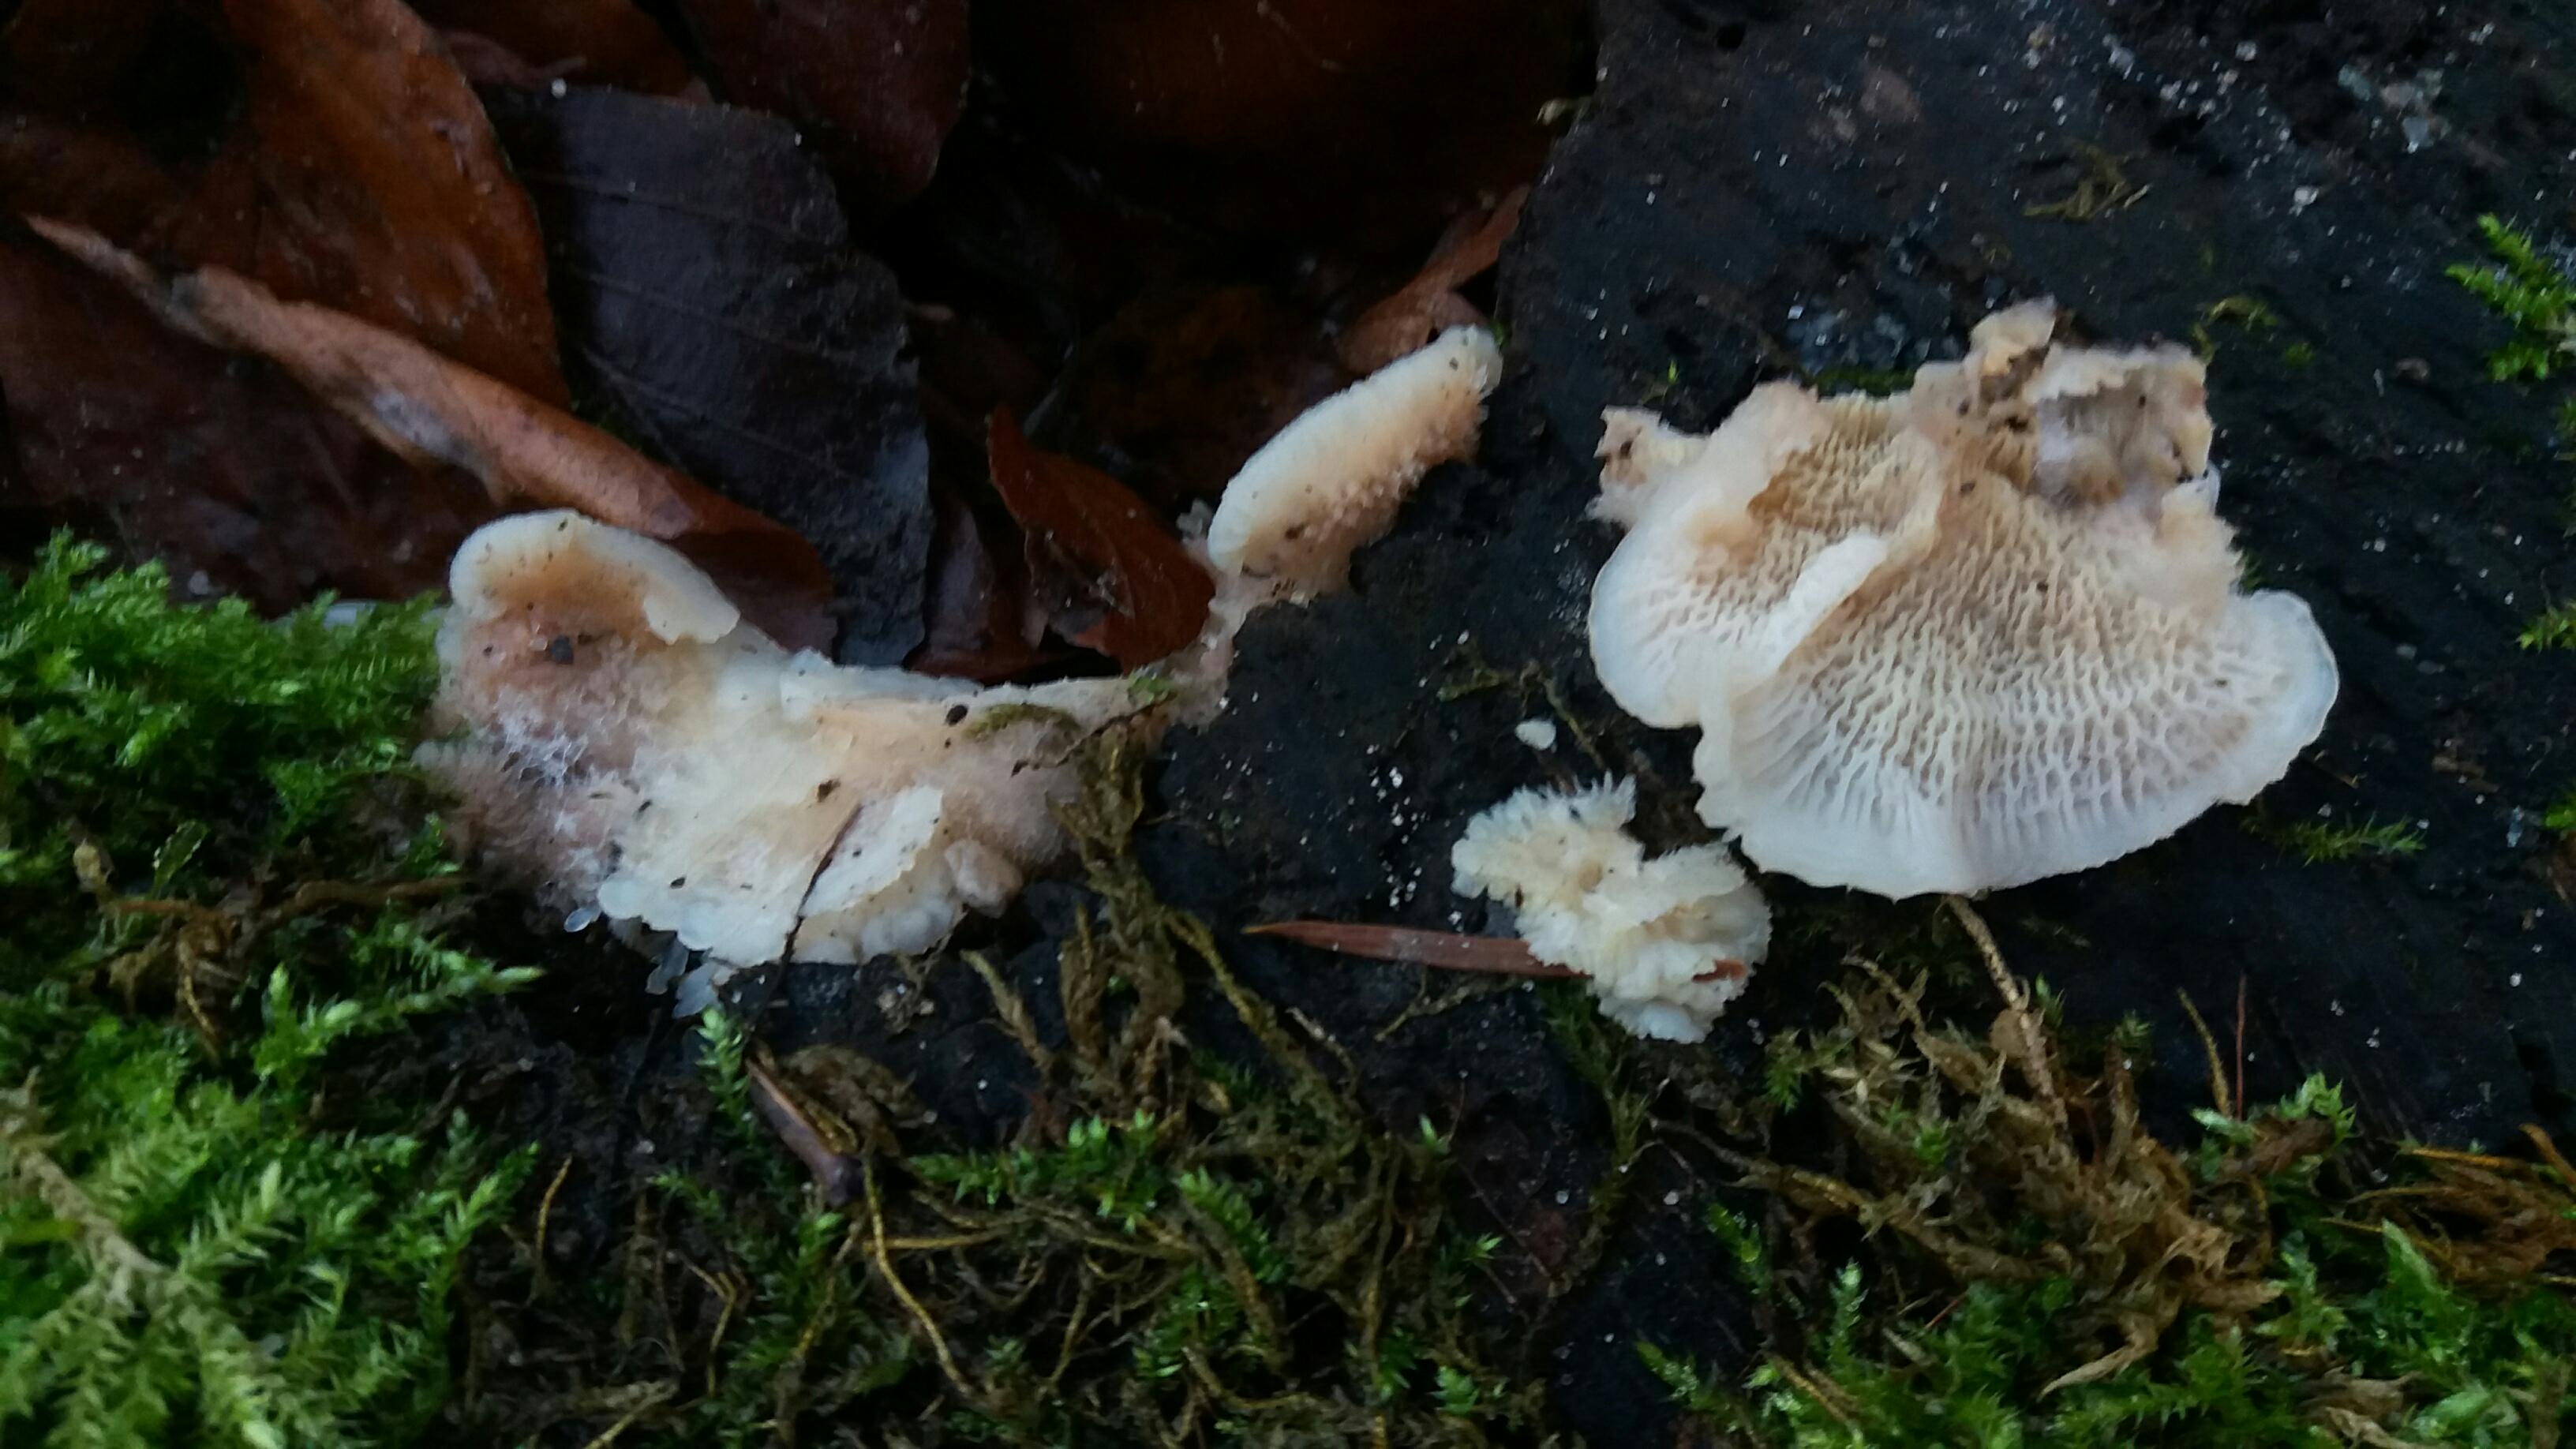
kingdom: Fungi
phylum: Basidiomycota
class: Agaricomycetes
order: Polyporales
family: Meruliaceae
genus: Phlebia
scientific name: Phlebia tremellosa
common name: bævrende åresvamp
